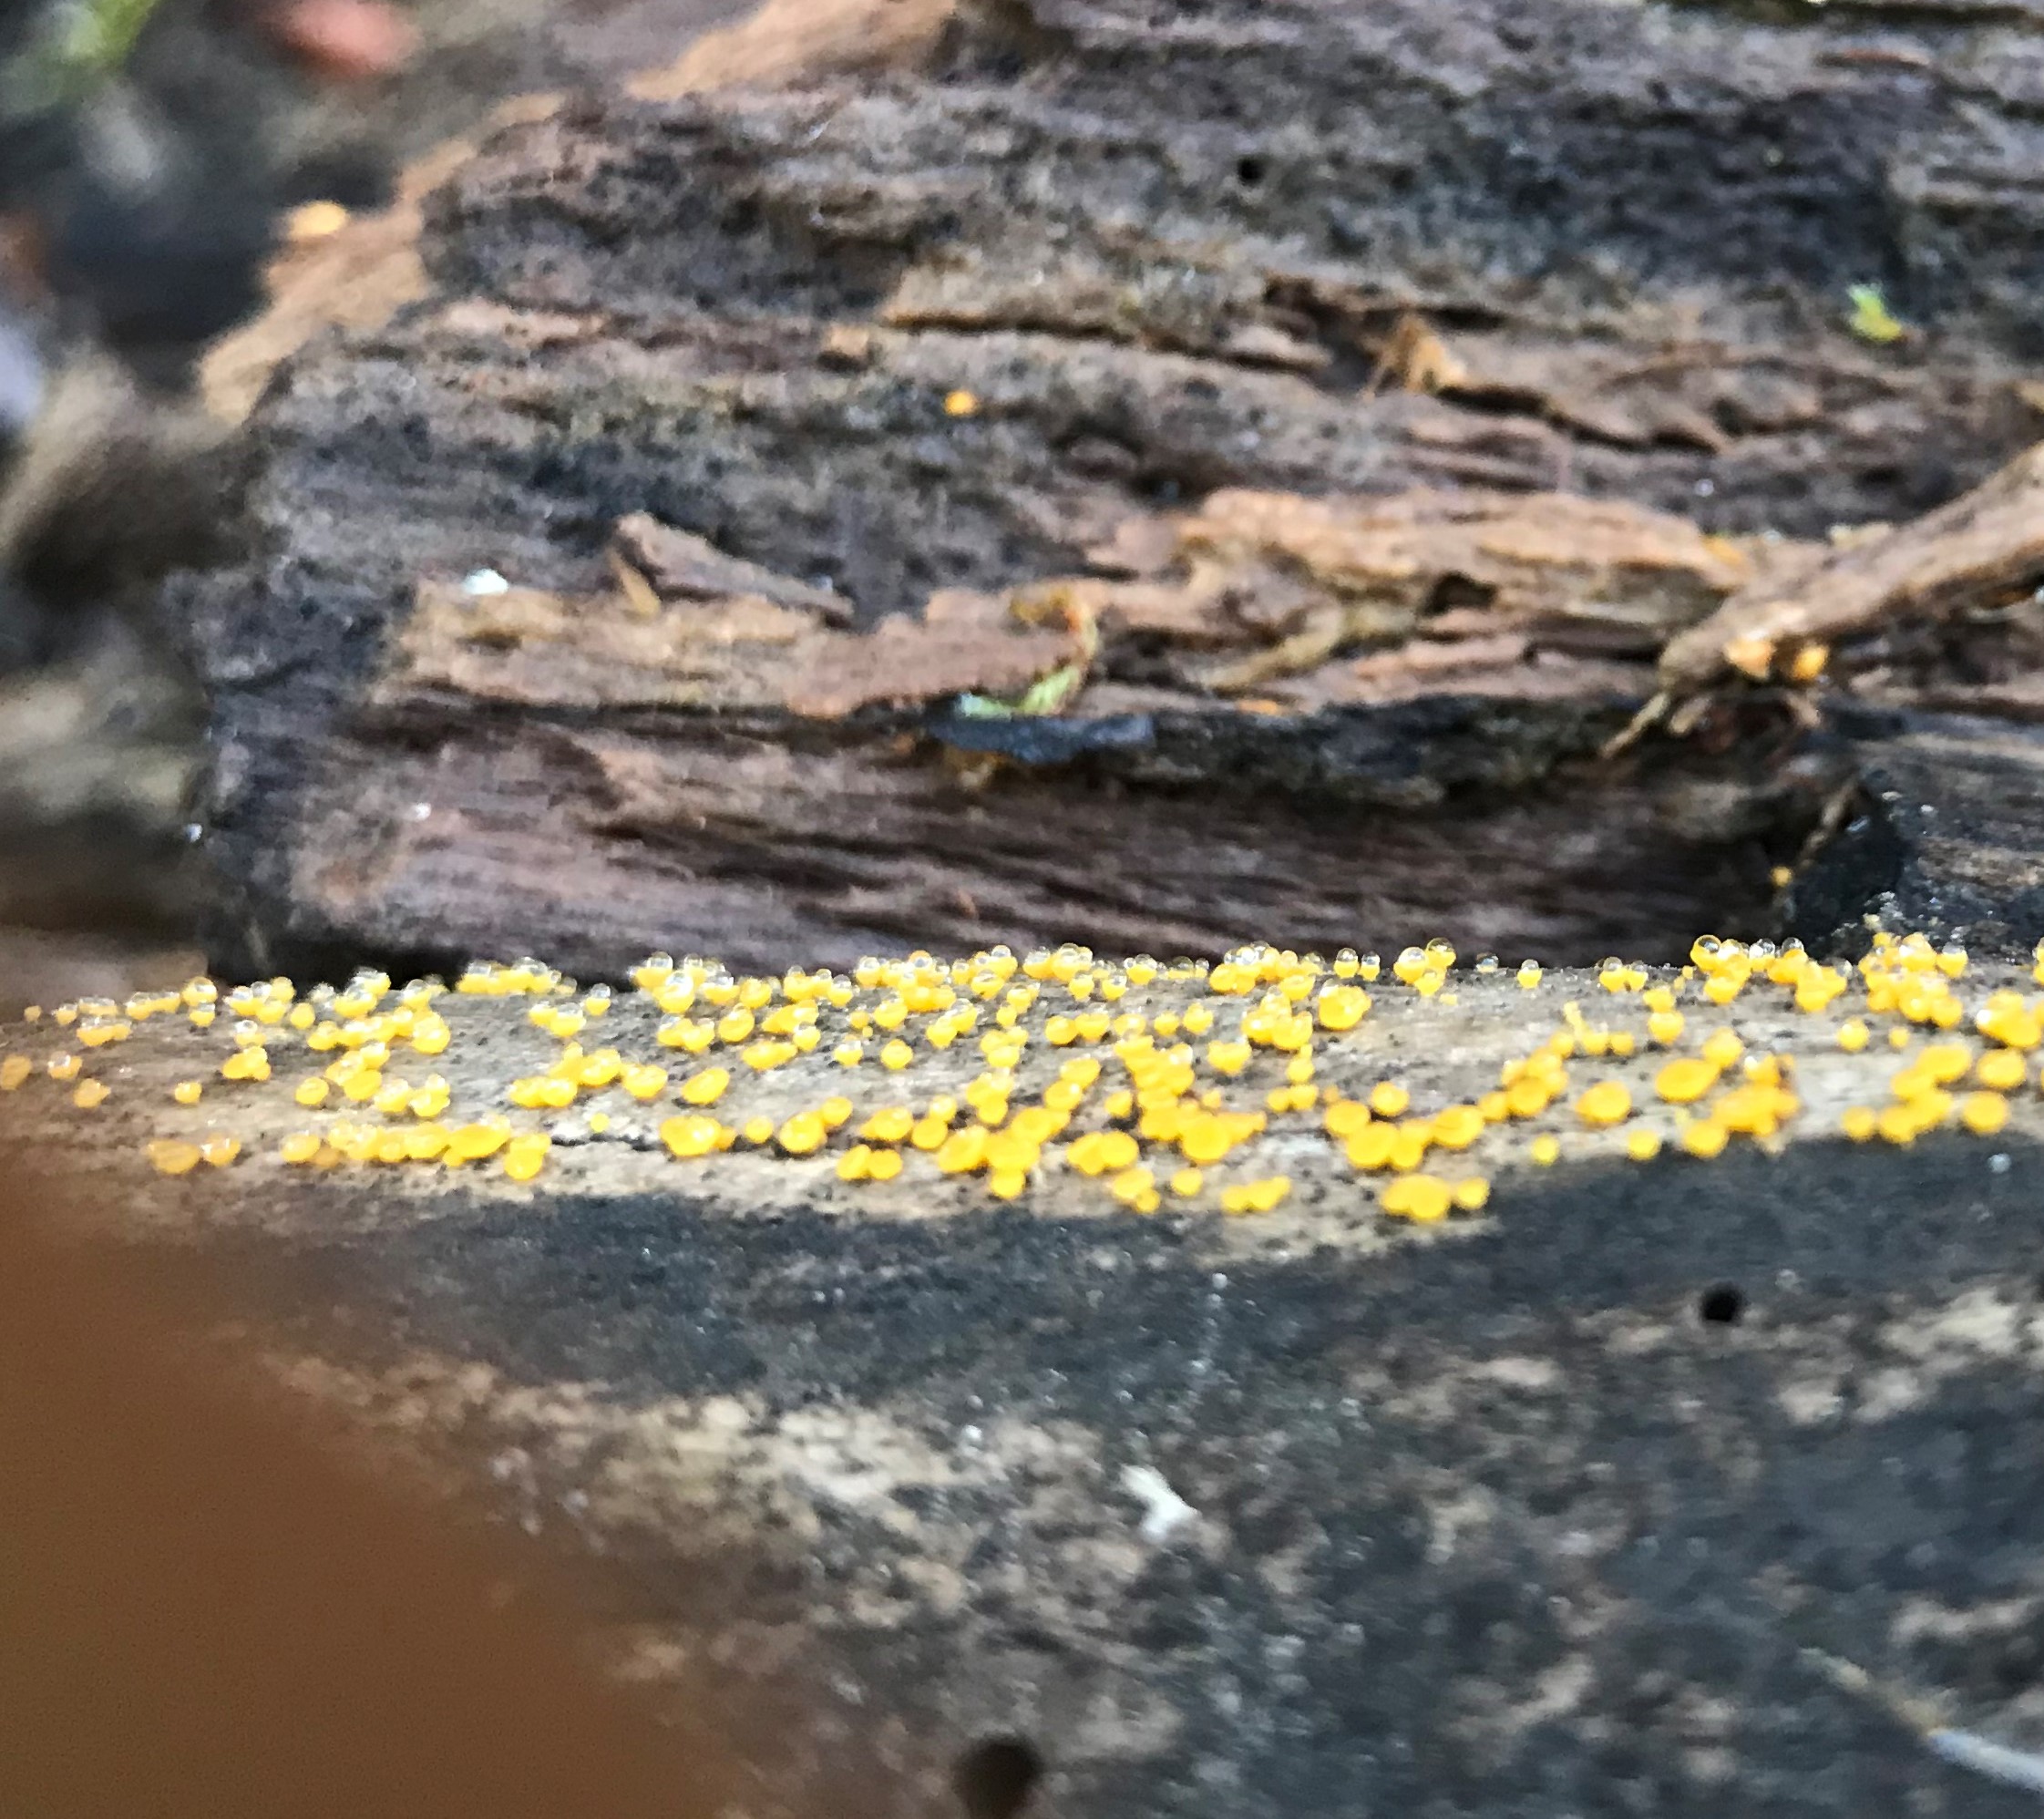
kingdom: Fungi
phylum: Ascomycota
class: Leotiomycetes
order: Helotiales
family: Pezizellaceae
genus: Calycina
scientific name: Calycina citrina
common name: almindelig gulskive
